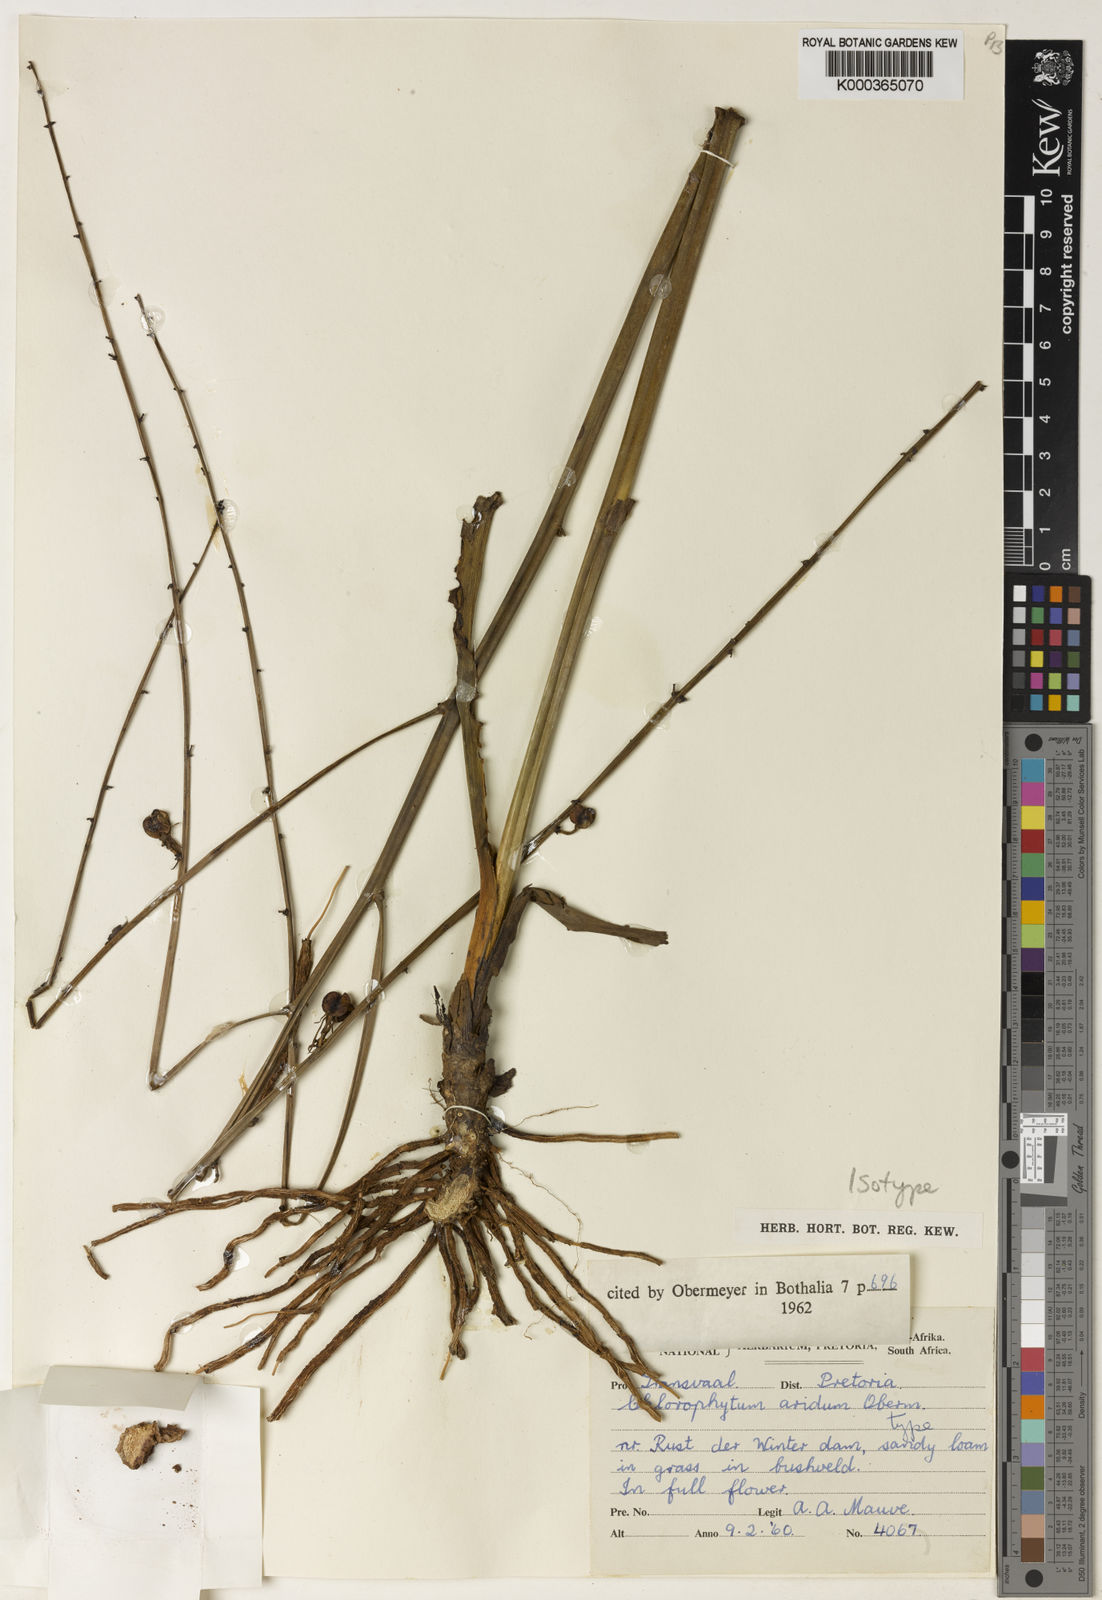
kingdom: Plantae
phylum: Tracheophyta
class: Liliopsida
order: Asparagales
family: Asparagaceae
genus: Chlorophytum
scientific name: Chlorophytum aridum
